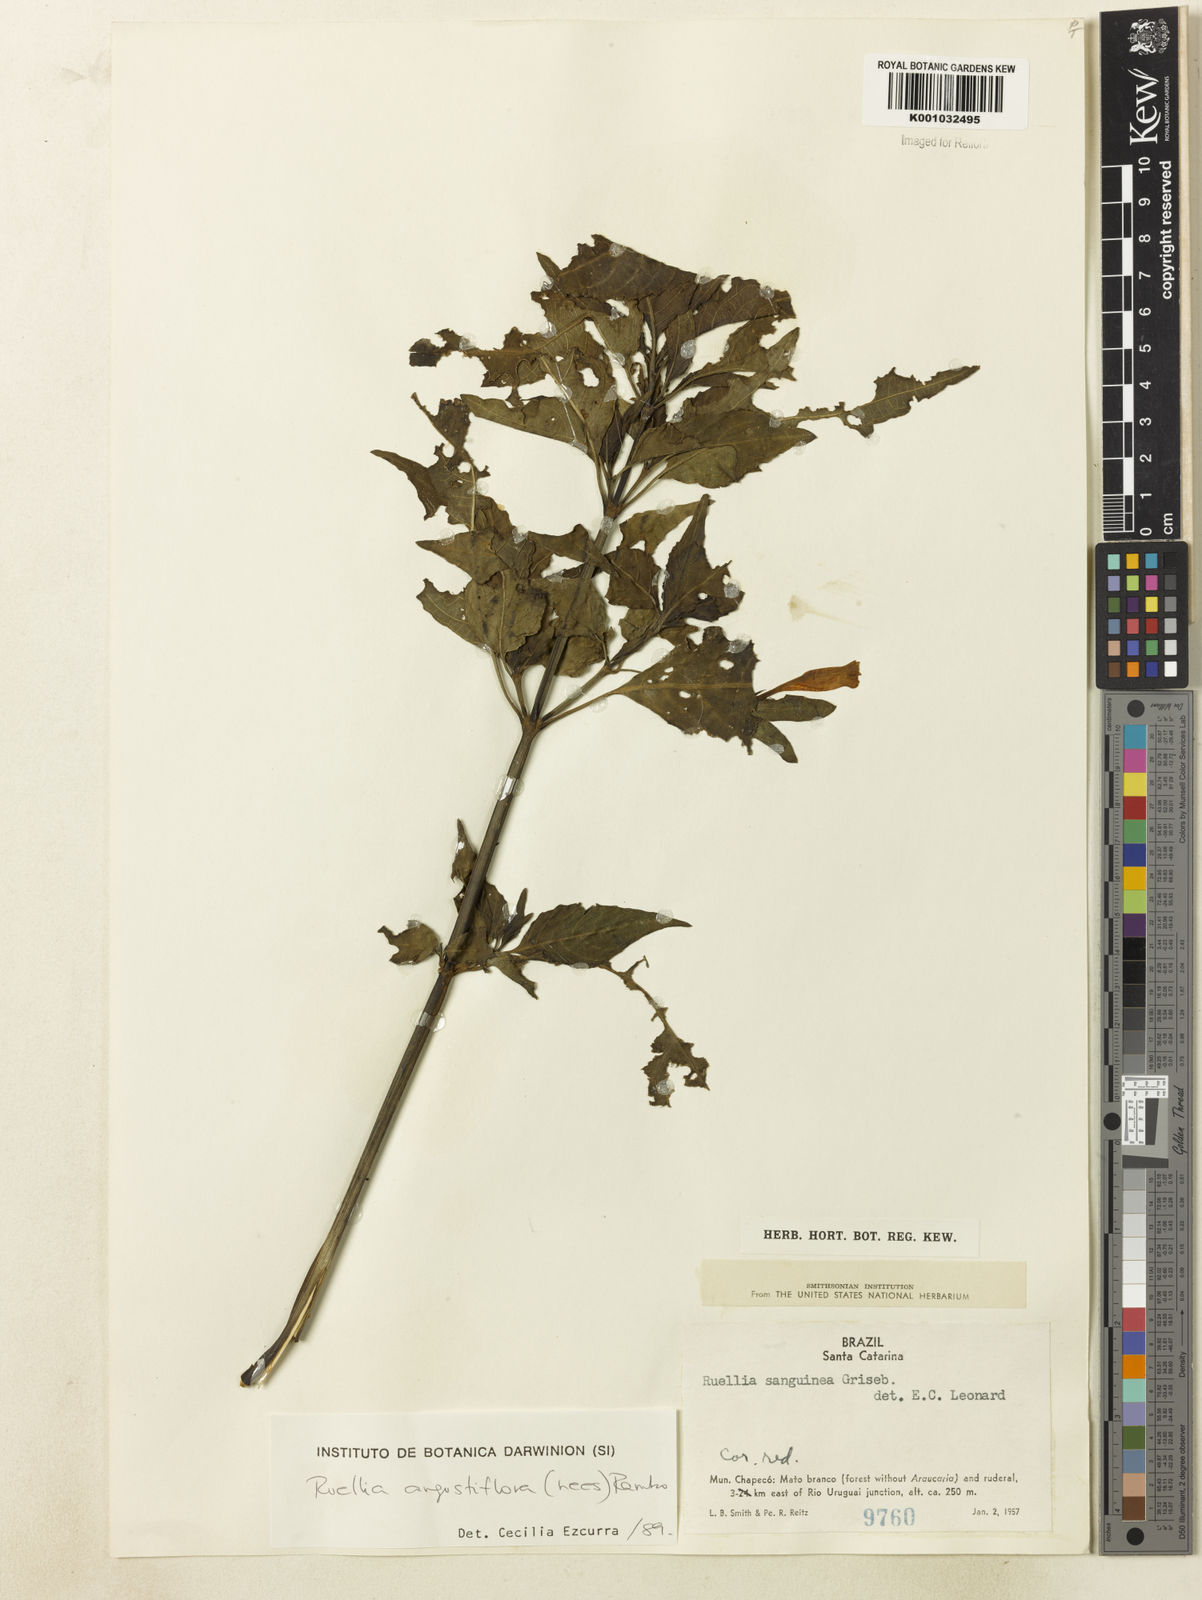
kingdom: Plantae
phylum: Tracheophyta
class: Magnoliopsida
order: Lamiales
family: Acanthaceae
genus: Ruellia
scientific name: Ruellia angustiflora
